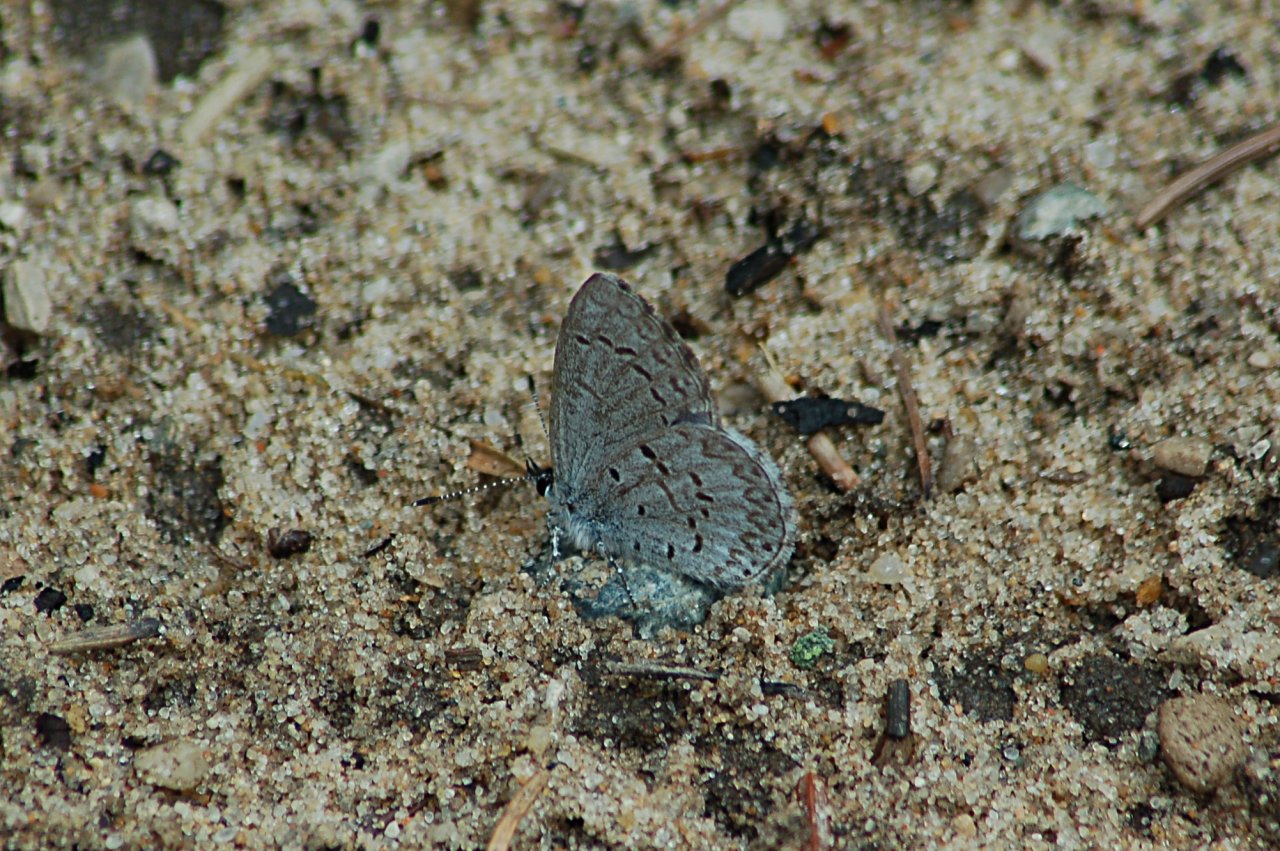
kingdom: Animalia
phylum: Arthropoda
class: Insecta
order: Lepidoptera
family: Lycaenidae
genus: Celastrina
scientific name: Celastrina lucia
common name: Northern Spring Azure
